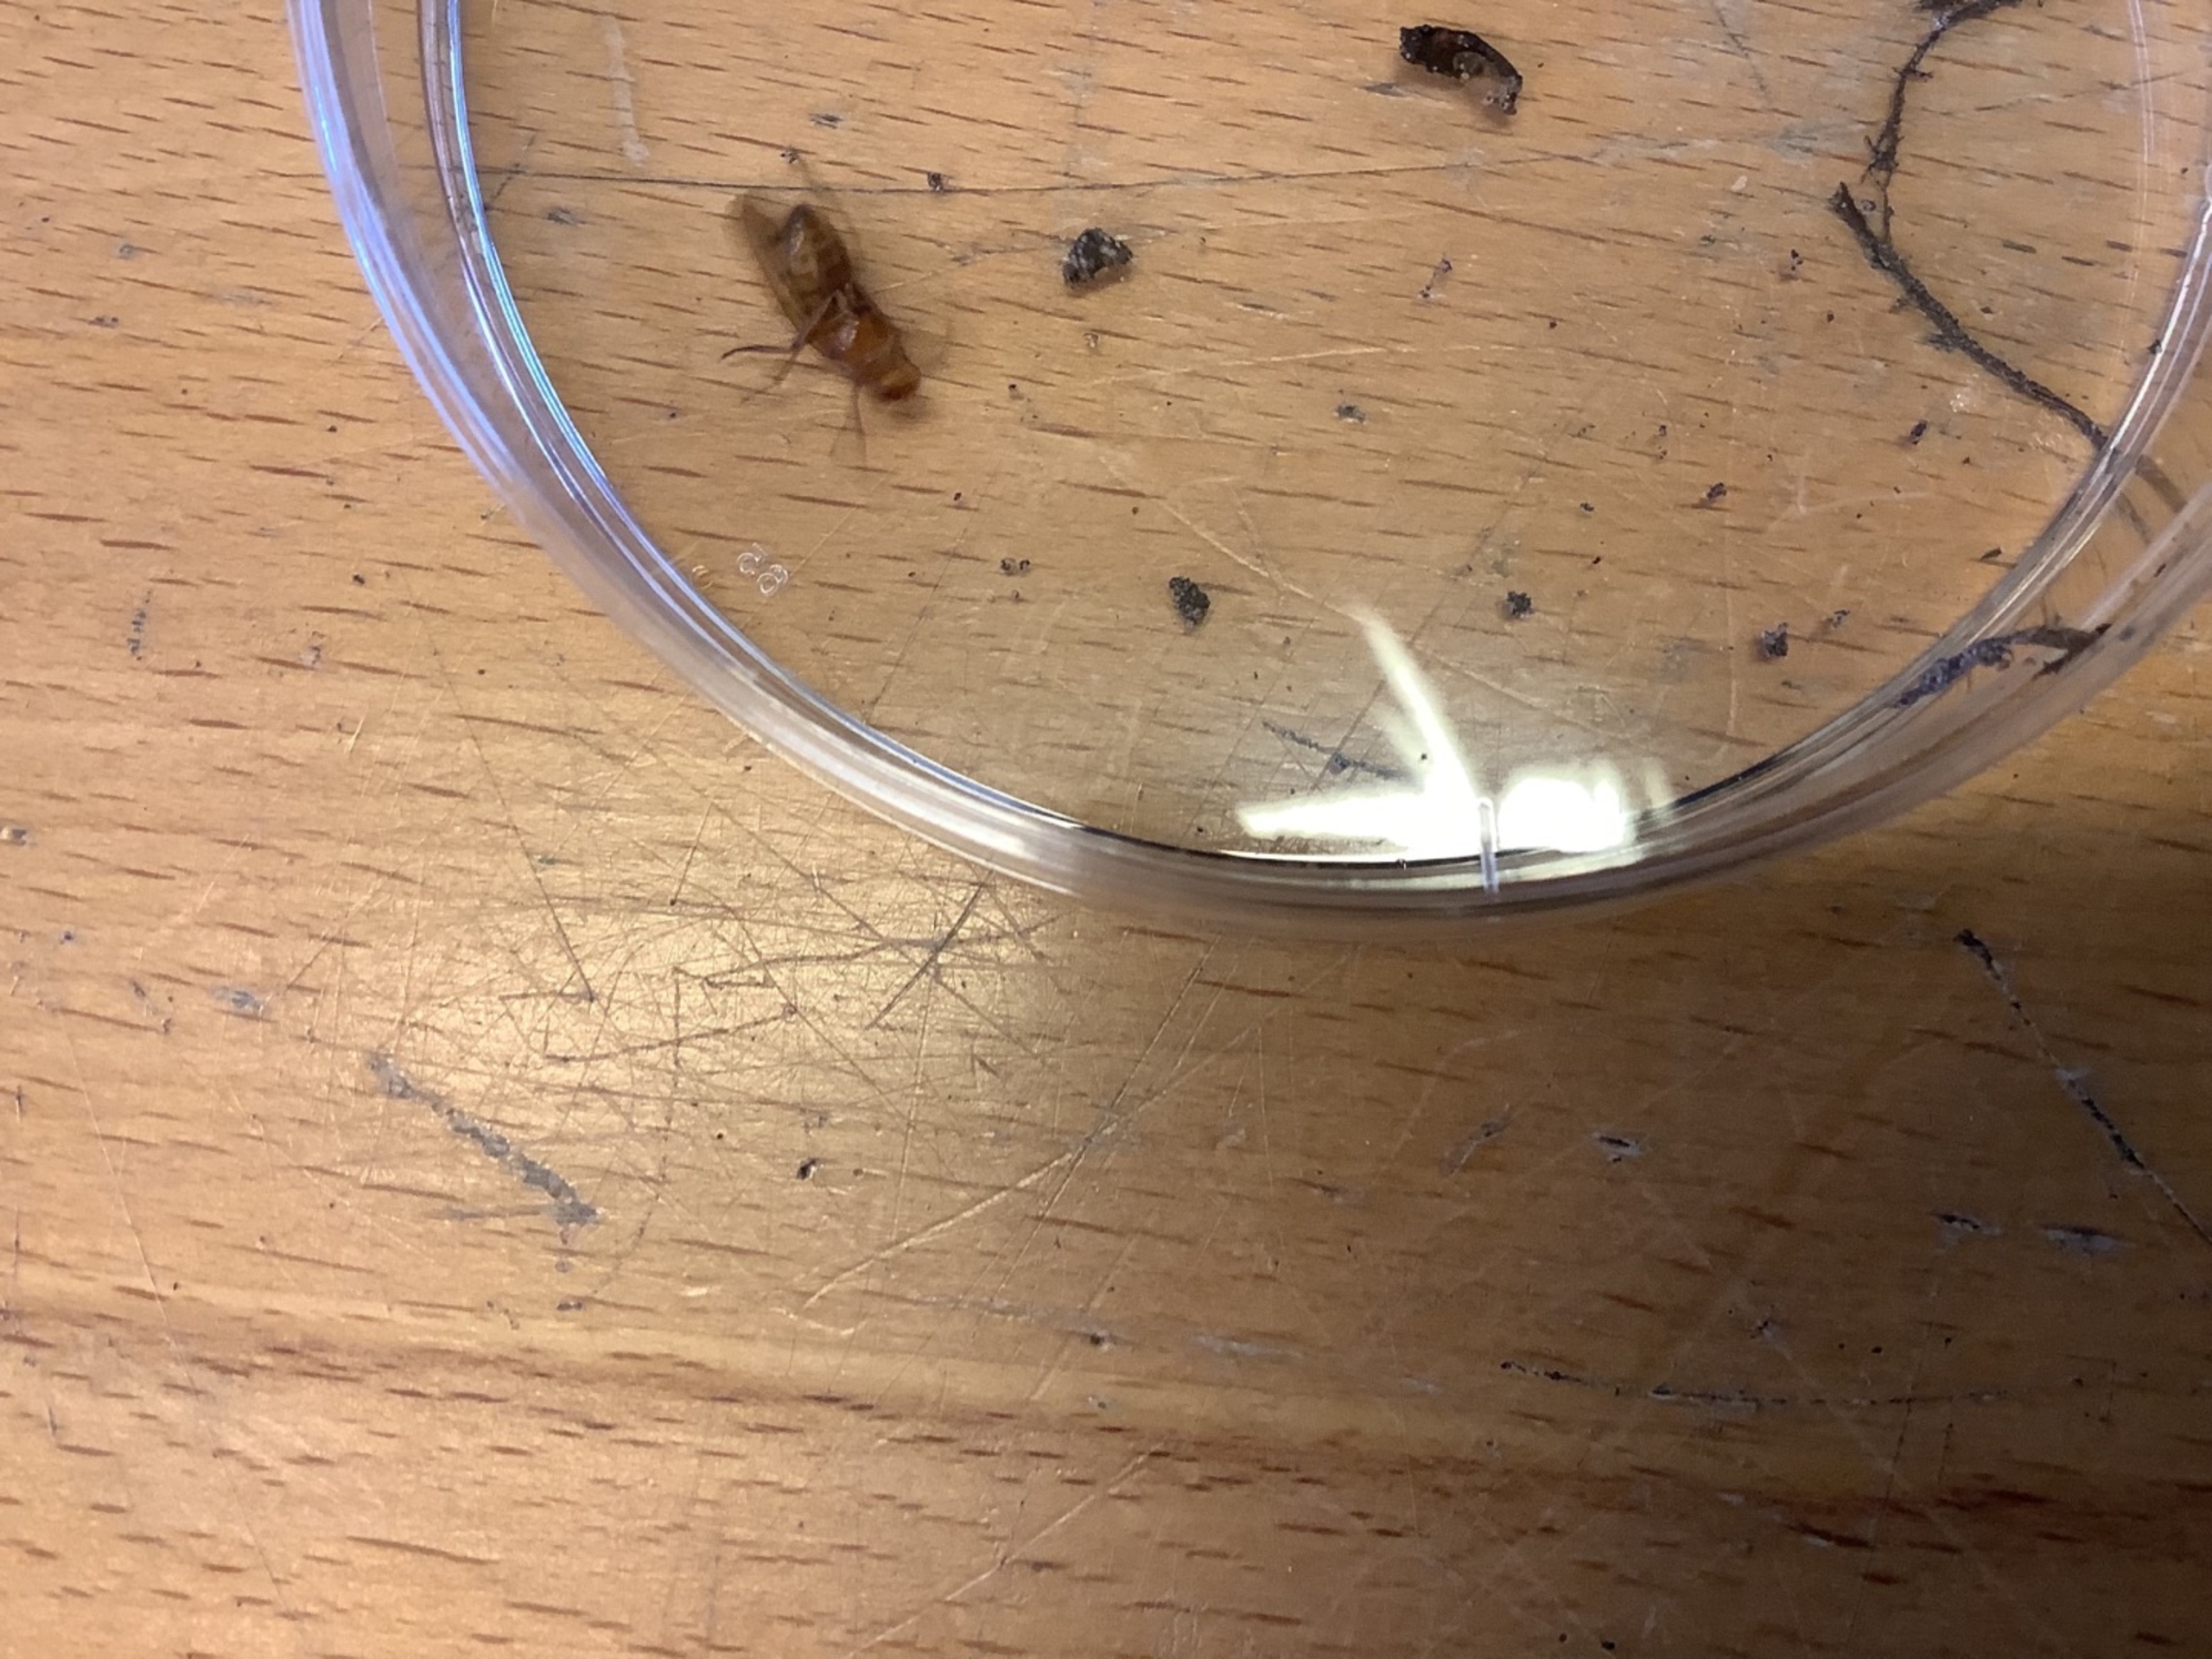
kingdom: Animalia
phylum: Arthropoda
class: Insecta
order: Diptera
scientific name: Diptera
